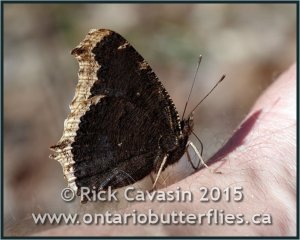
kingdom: Animalia
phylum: Arthropoda
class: Insecta
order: Lepidoptera
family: Nymphalidae
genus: Nymphalis
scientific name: Nymphalis antiopa
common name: Mourning Cloak
